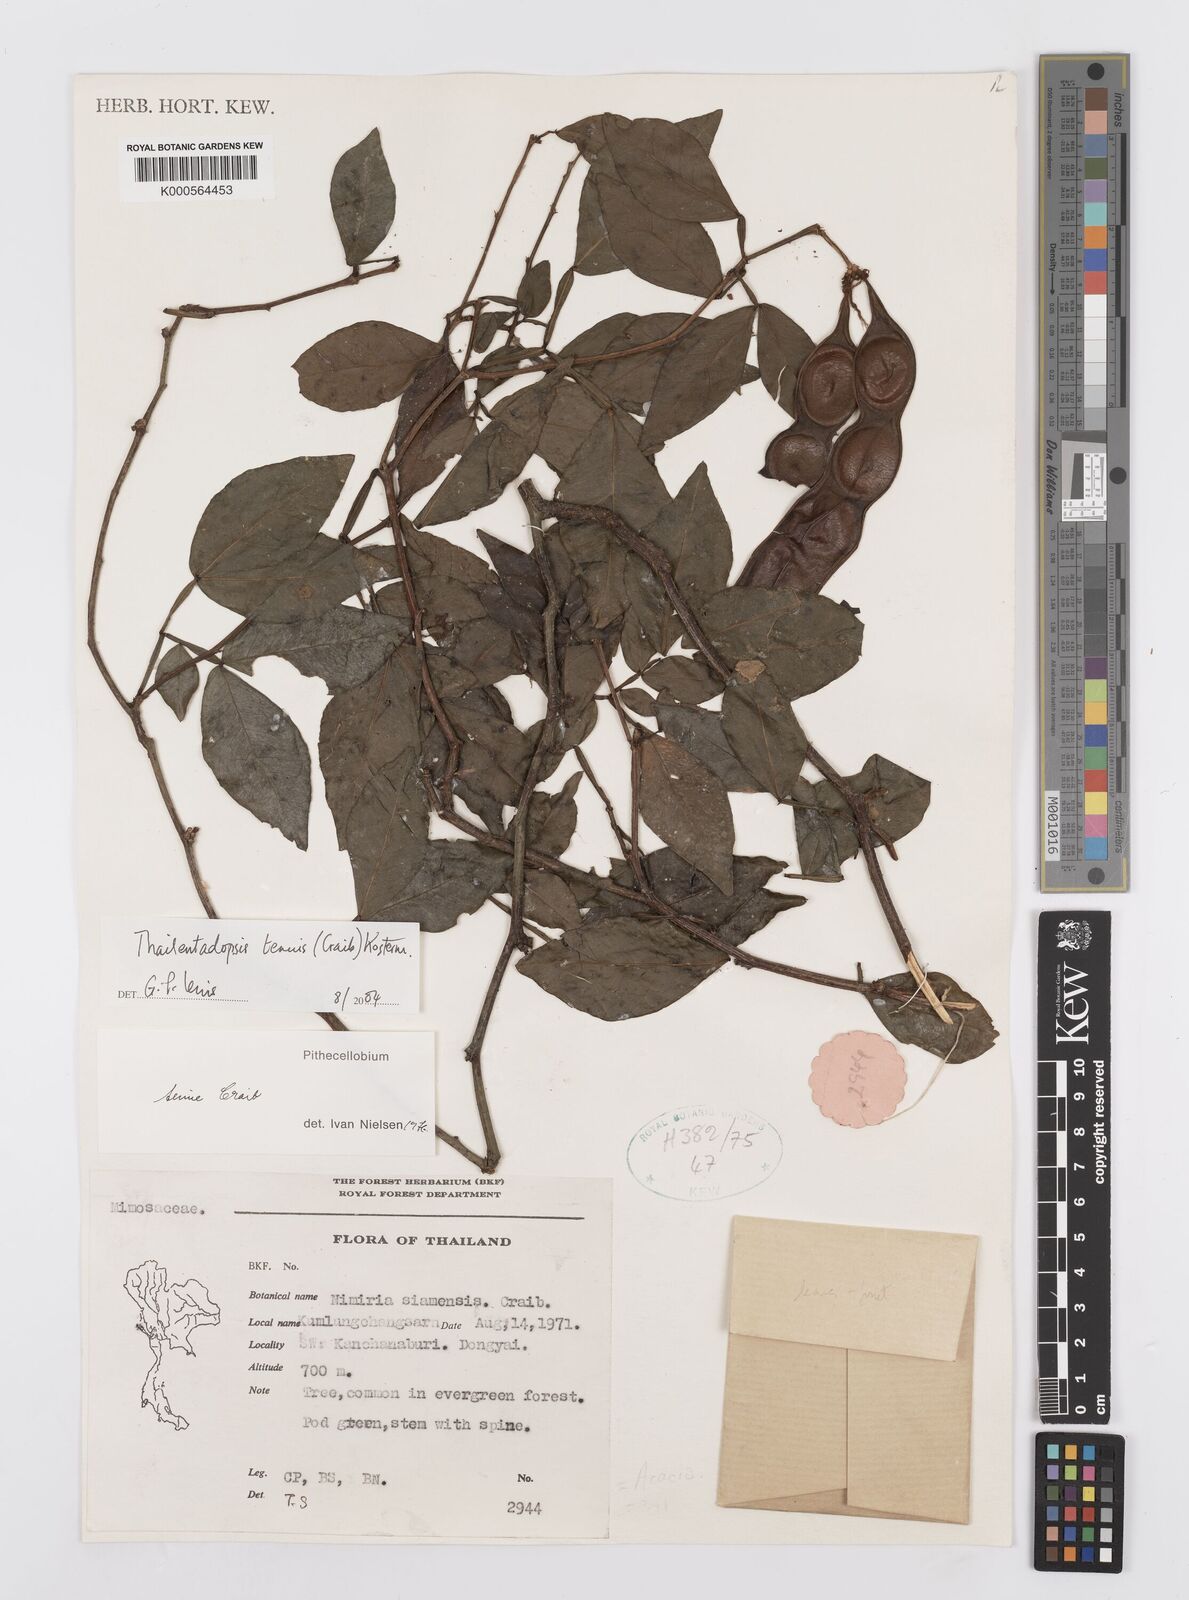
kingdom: Plantae
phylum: Tracheophyta
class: Magnoliopsida
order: Fabales
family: Fabaceae
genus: Thailentadopsis
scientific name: Thailentadopsis tenuis
